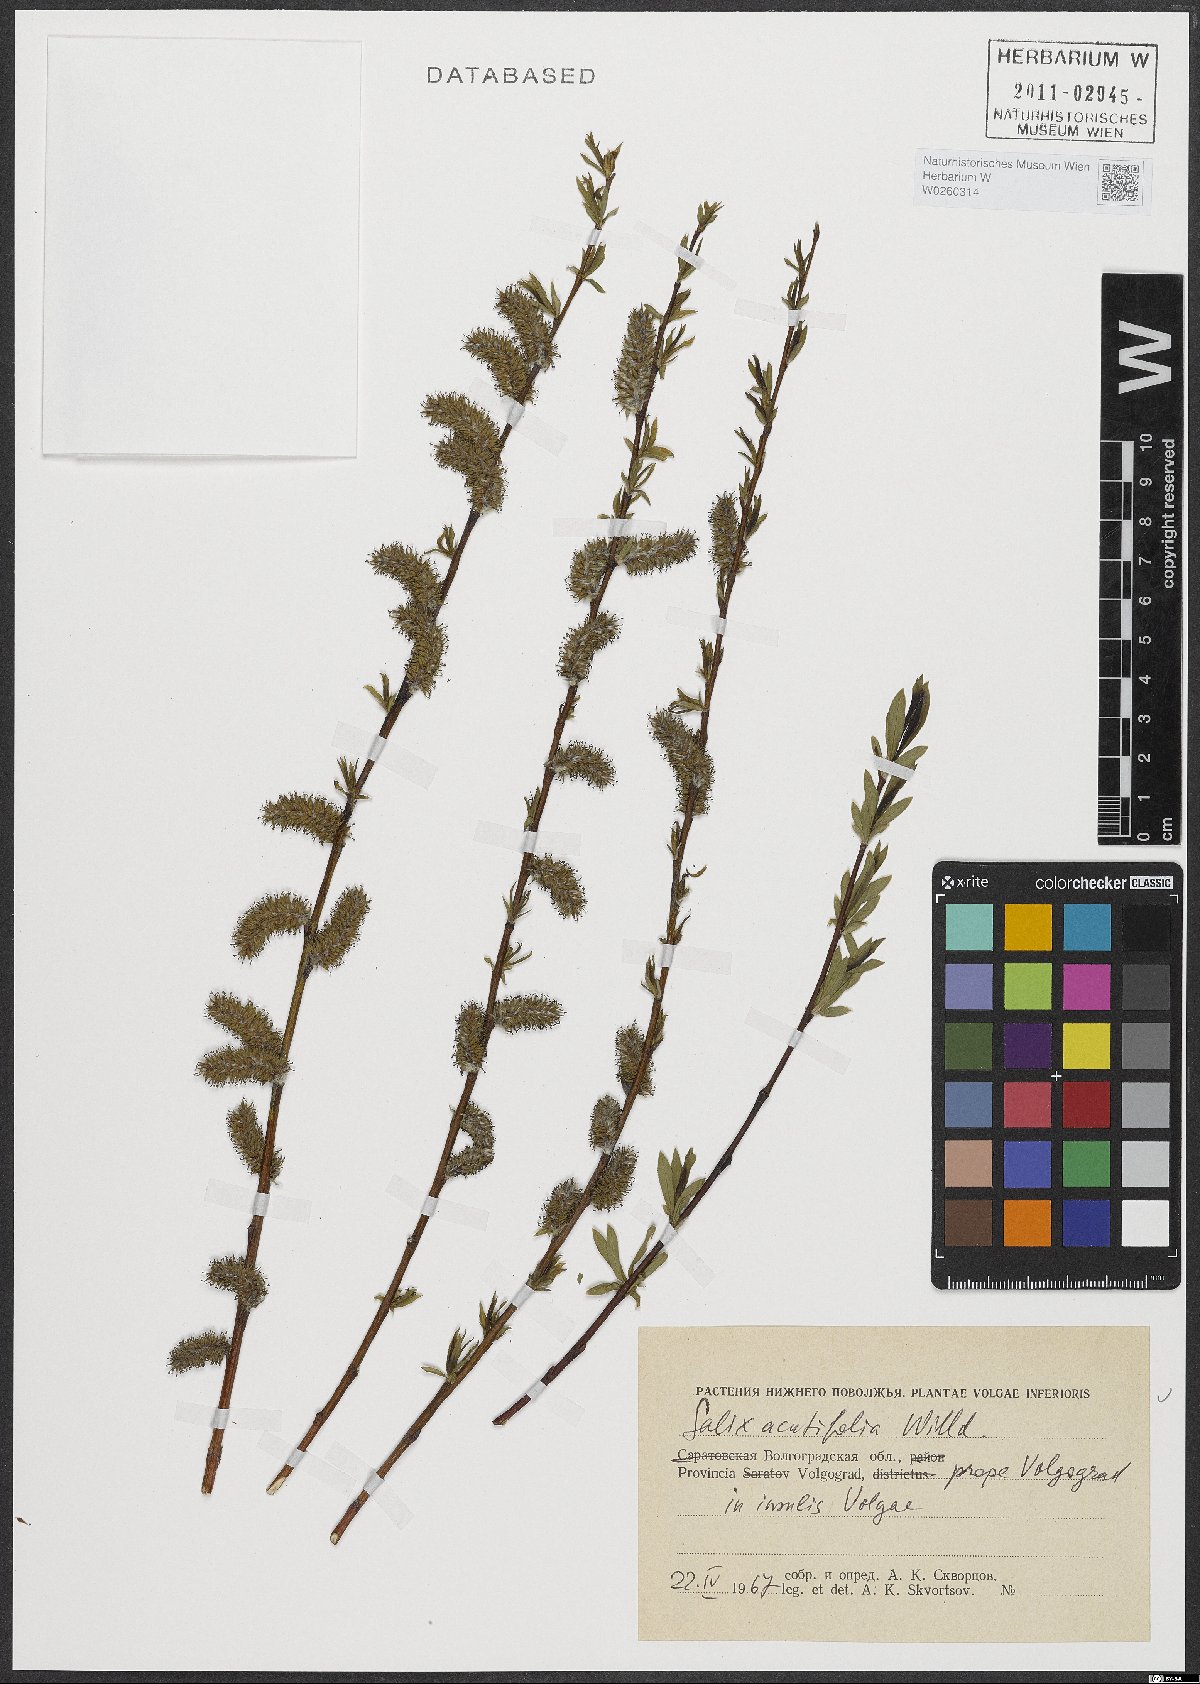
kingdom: Plantae
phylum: Tracheophyta
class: Magnoliopsida
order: Malpighiales
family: Salicaceae
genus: Salix
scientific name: Salix acutifolia
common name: Siberian violet-willow
